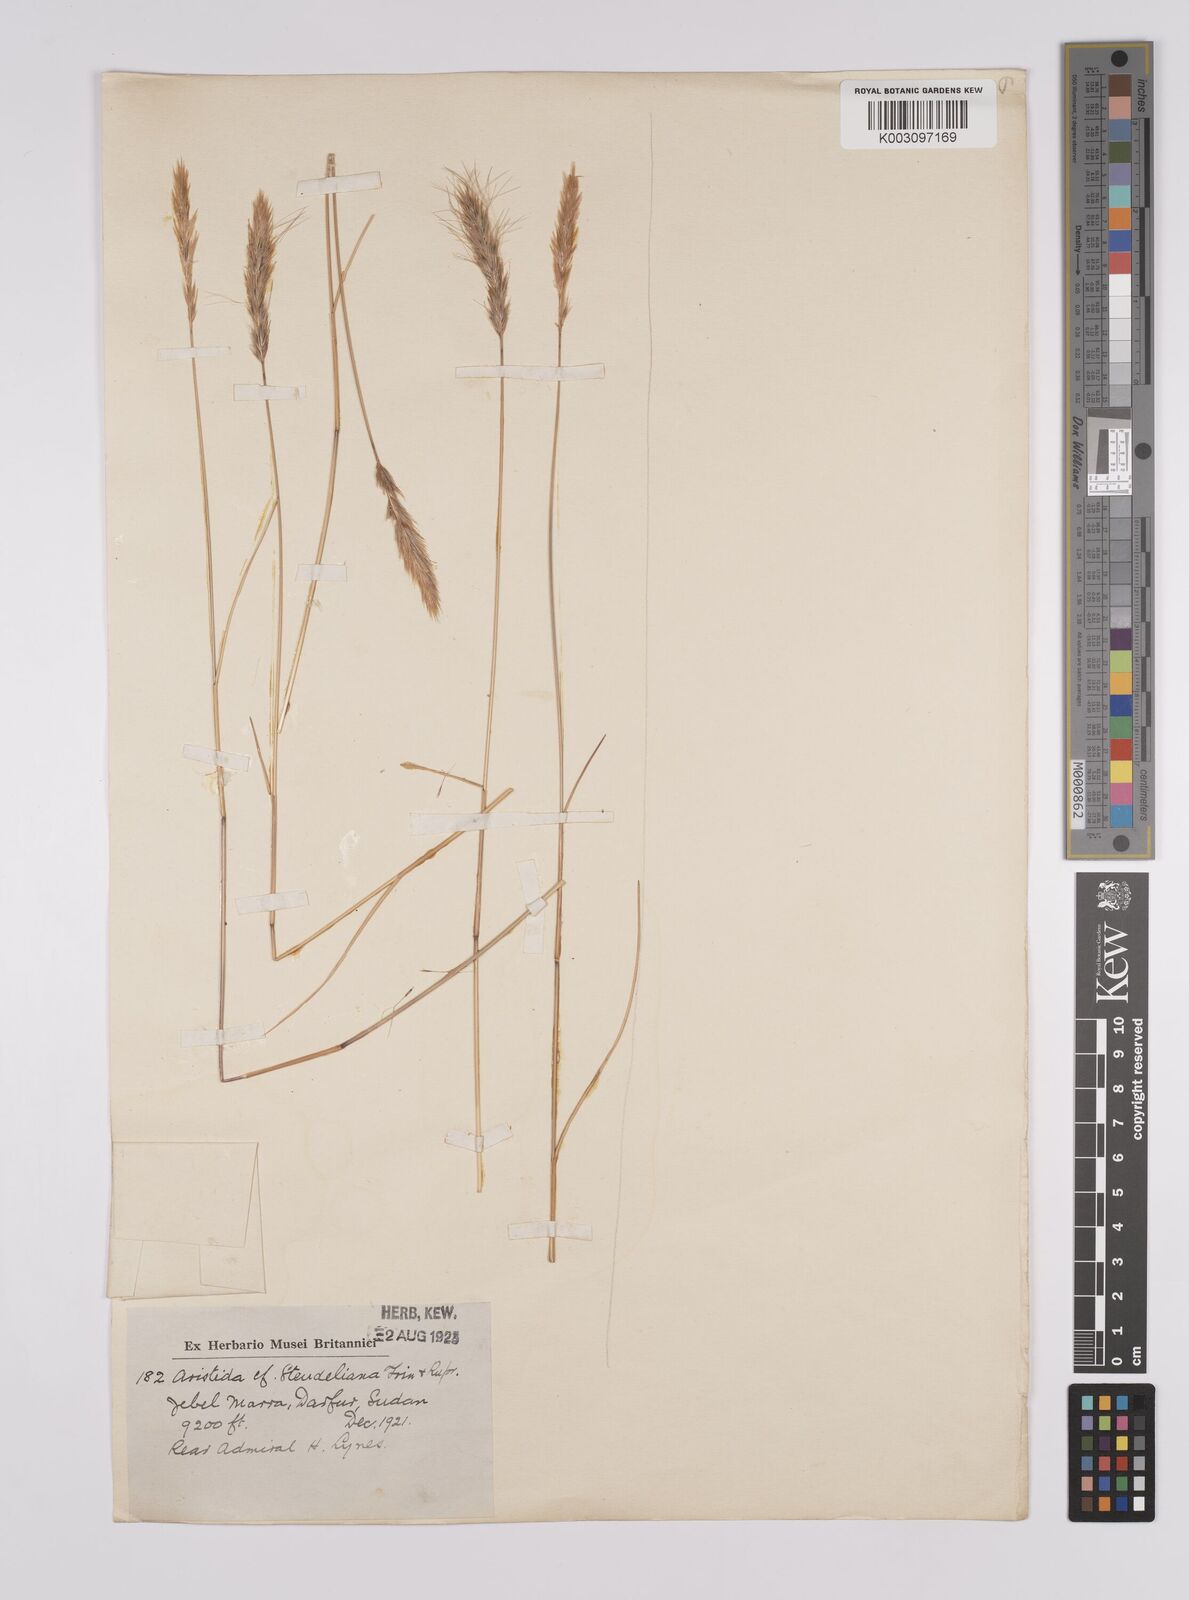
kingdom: Plantae
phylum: Tracheophyta
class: Liliopsida
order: Poales
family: Poaceae
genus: Aristida
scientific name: Aristida congesta
